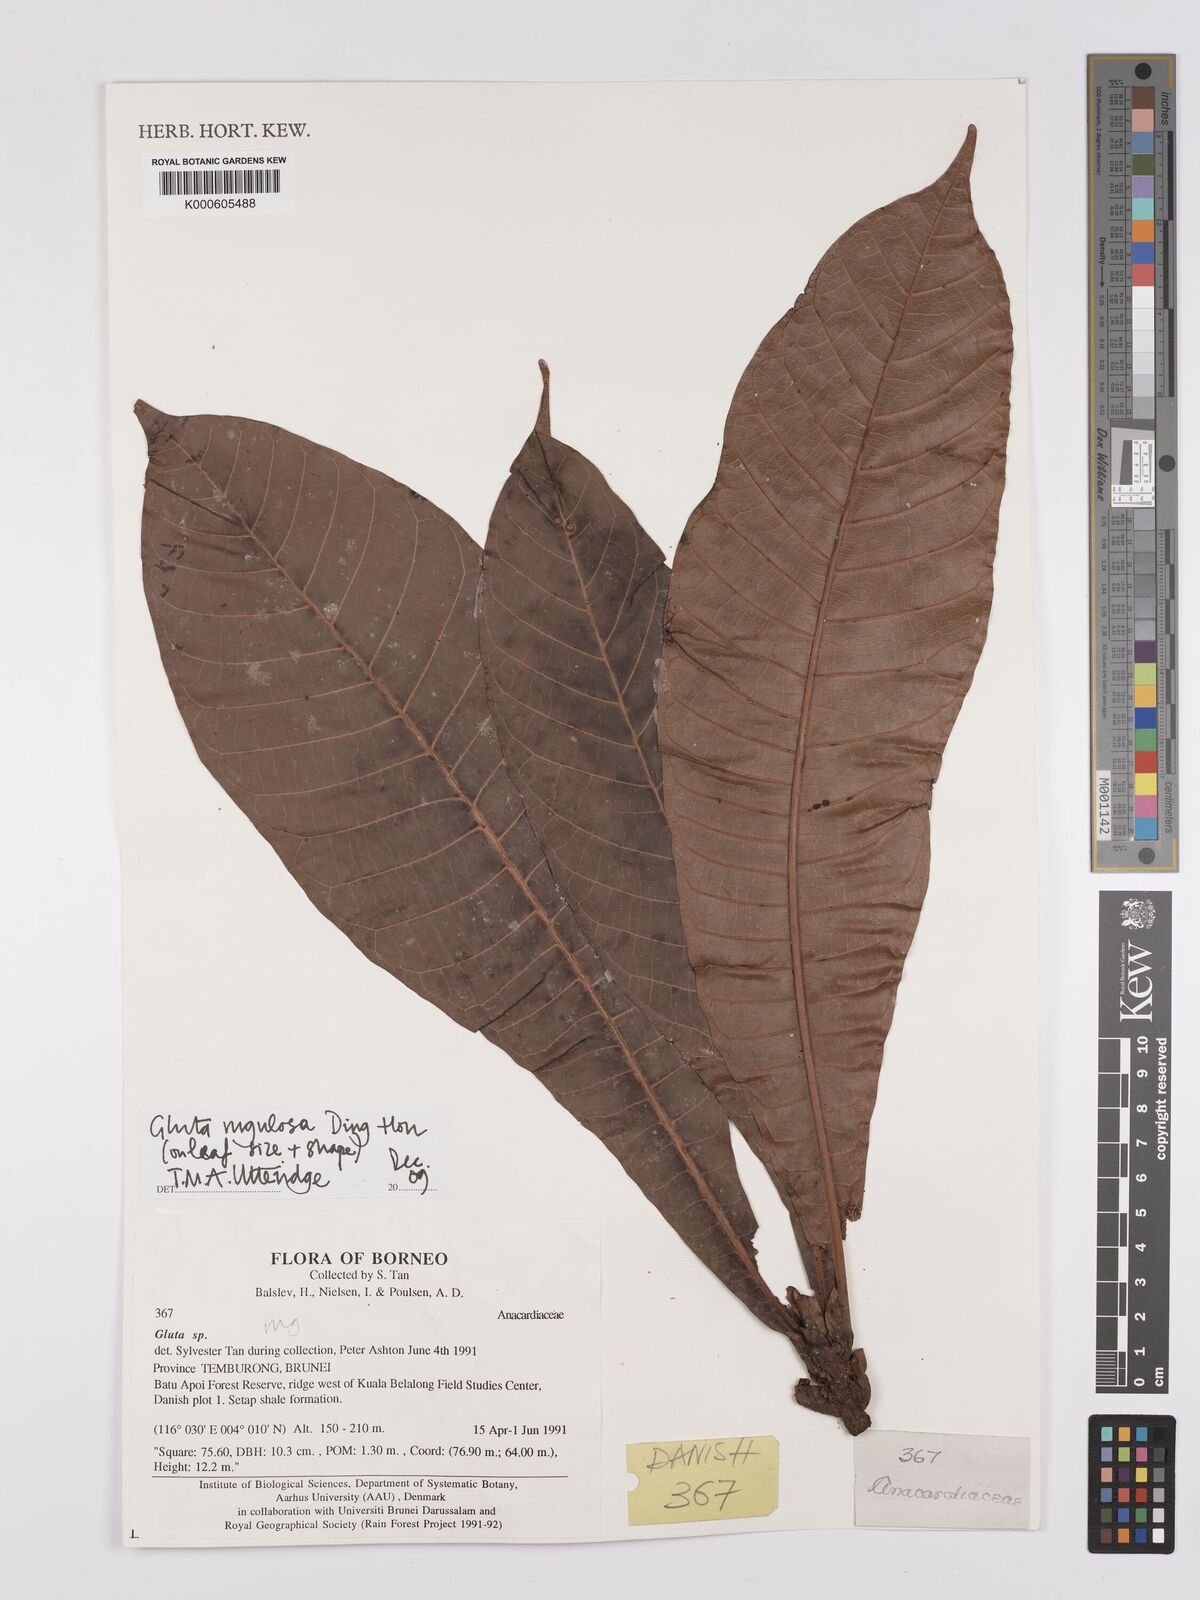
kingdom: Plantae
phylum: Tracheophyta
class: Magnoliopsida
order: Sapindales
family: Anacardiaceae
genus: Gluta
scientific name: Gluta rugulosa
